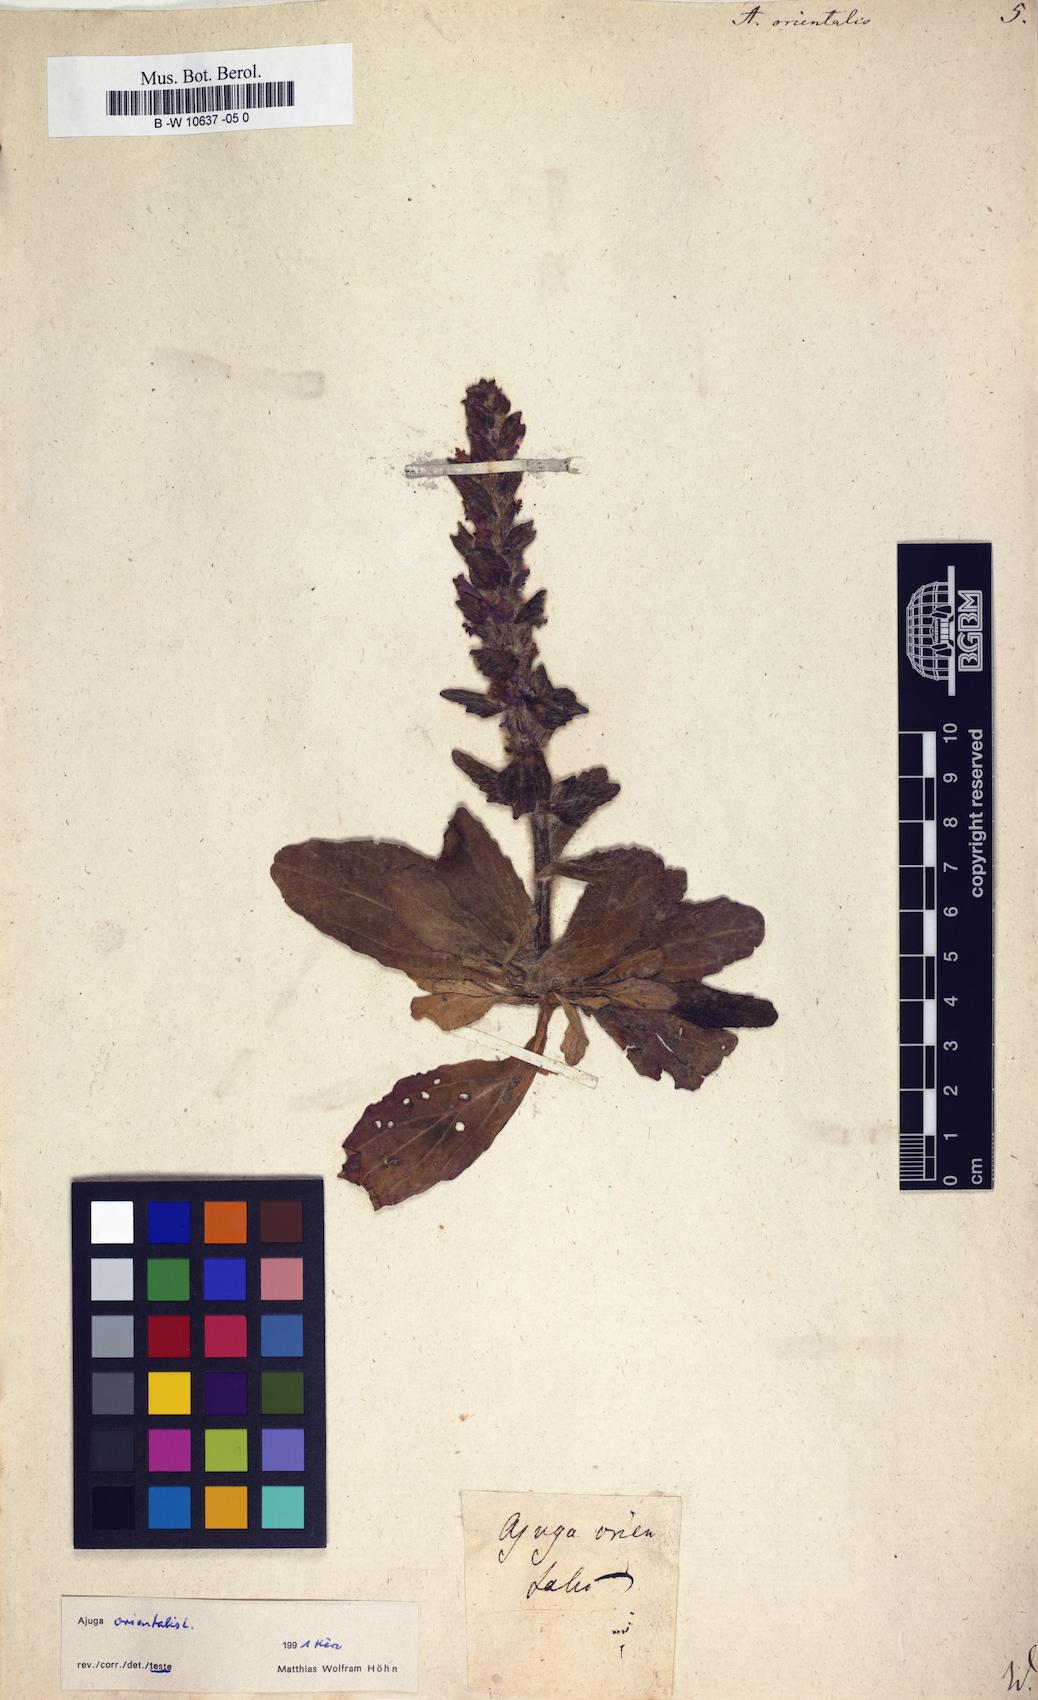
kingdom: Plantae
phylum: Tracheophyta
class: Magnoliopsida
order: Lamiales
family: Lamiaceae
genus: Ajuga
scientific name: Ajuga orientalis
